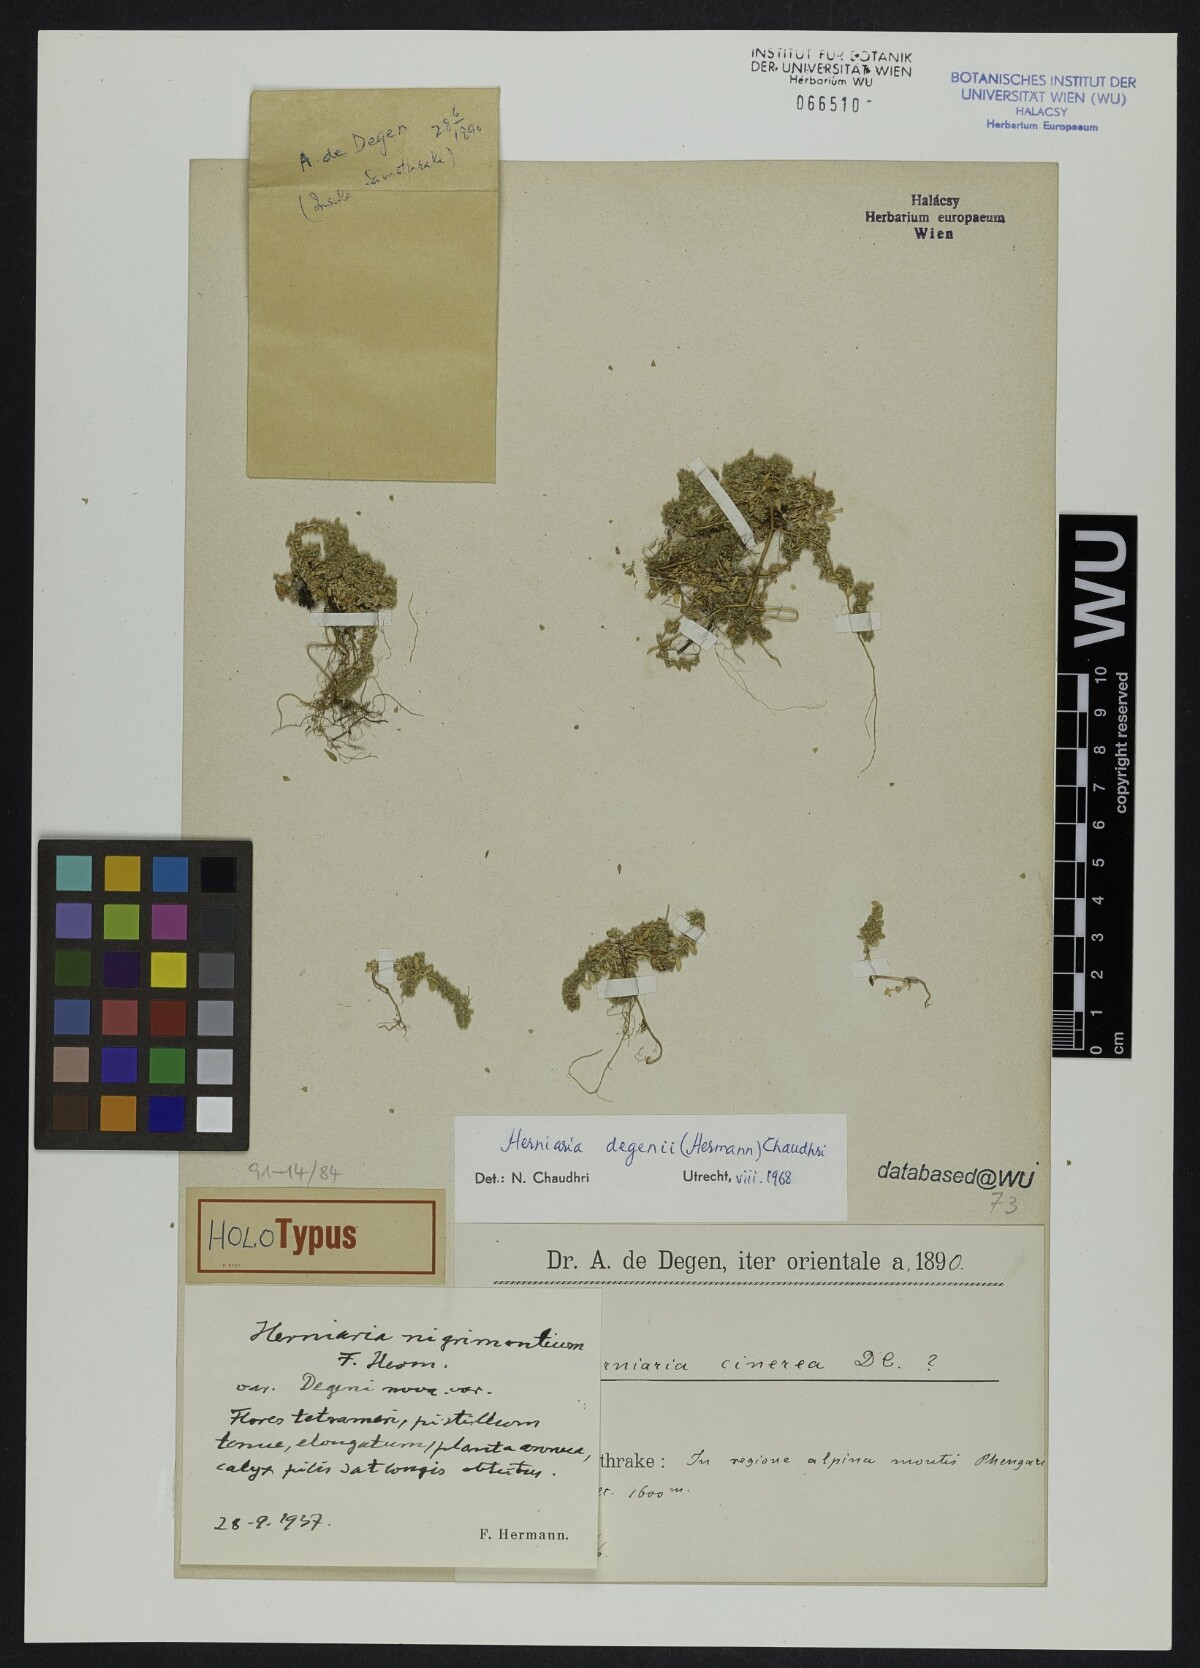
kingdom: Plantae
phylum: Tracheophyta
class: Magnoliopsida
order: Caryophyllales
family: Caryophyllaceae
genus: Herniaria
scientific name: Herniaria degenii
